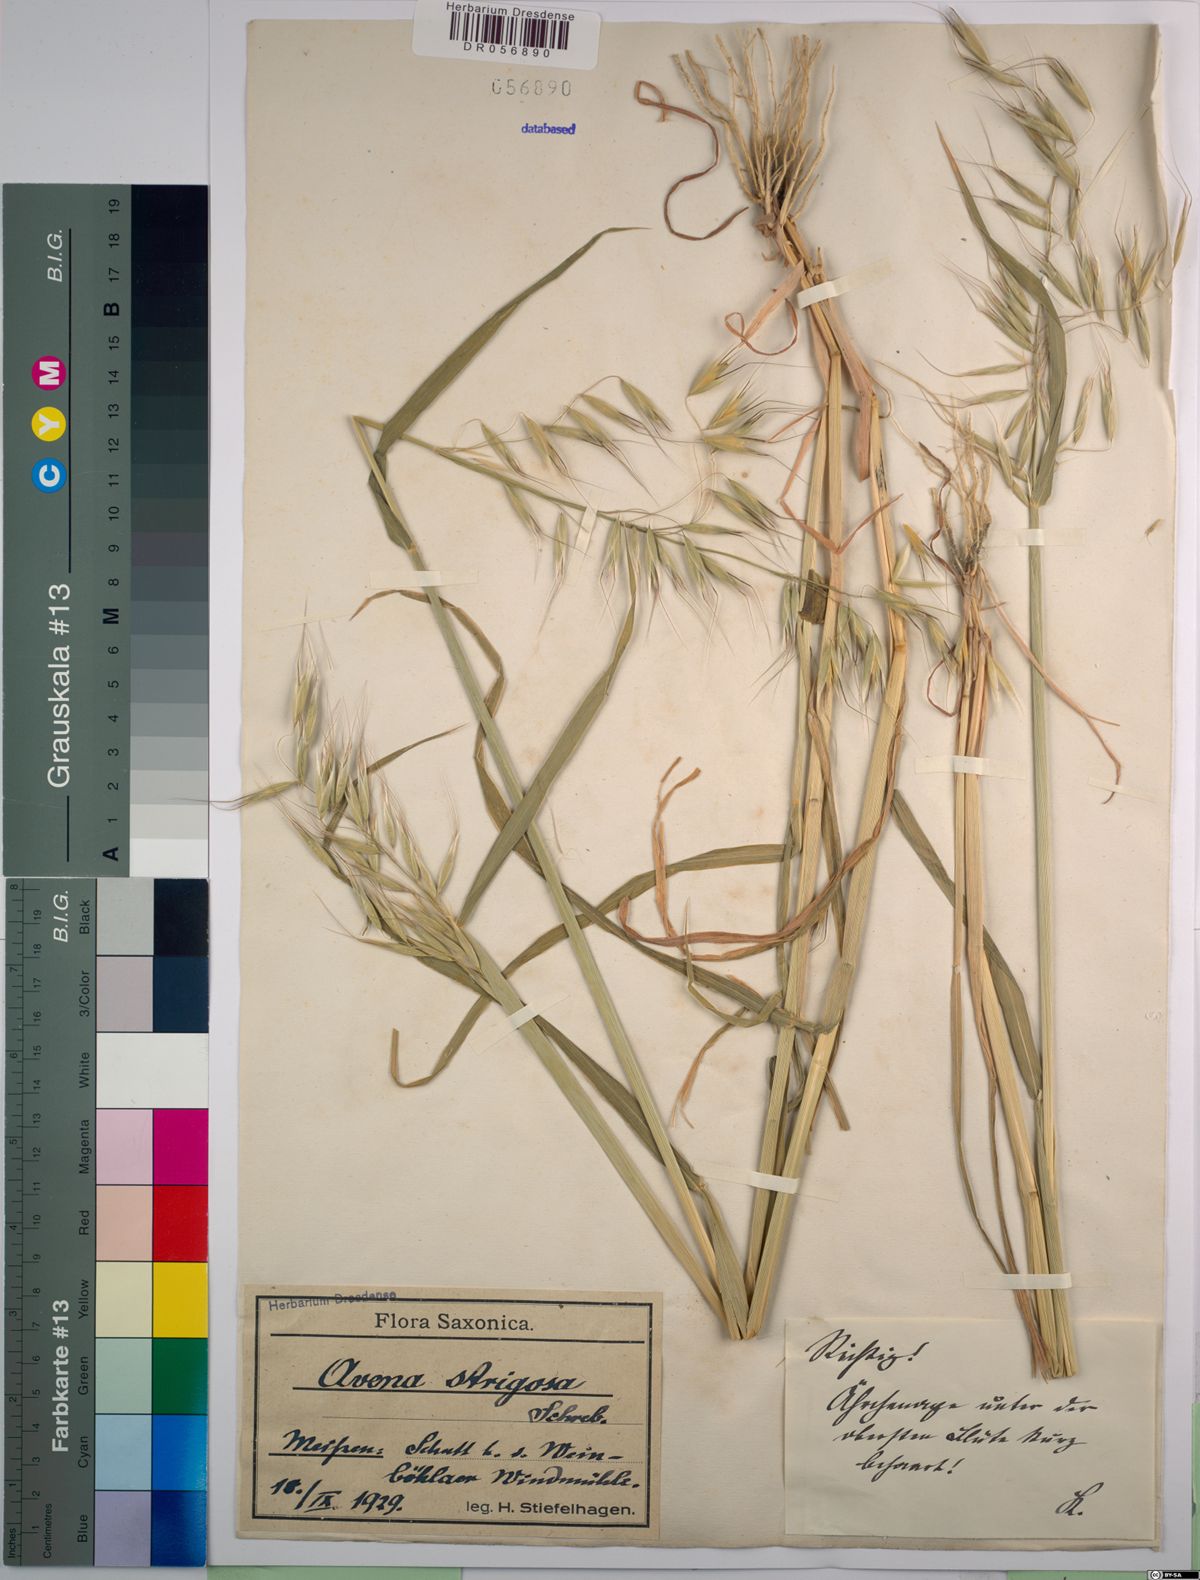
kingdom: Plantae
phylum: Tracheophyta
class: Liliopsida
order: Poales
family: Poaceae
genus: Avena
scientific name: Avena strigosa
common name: Bristle oat
